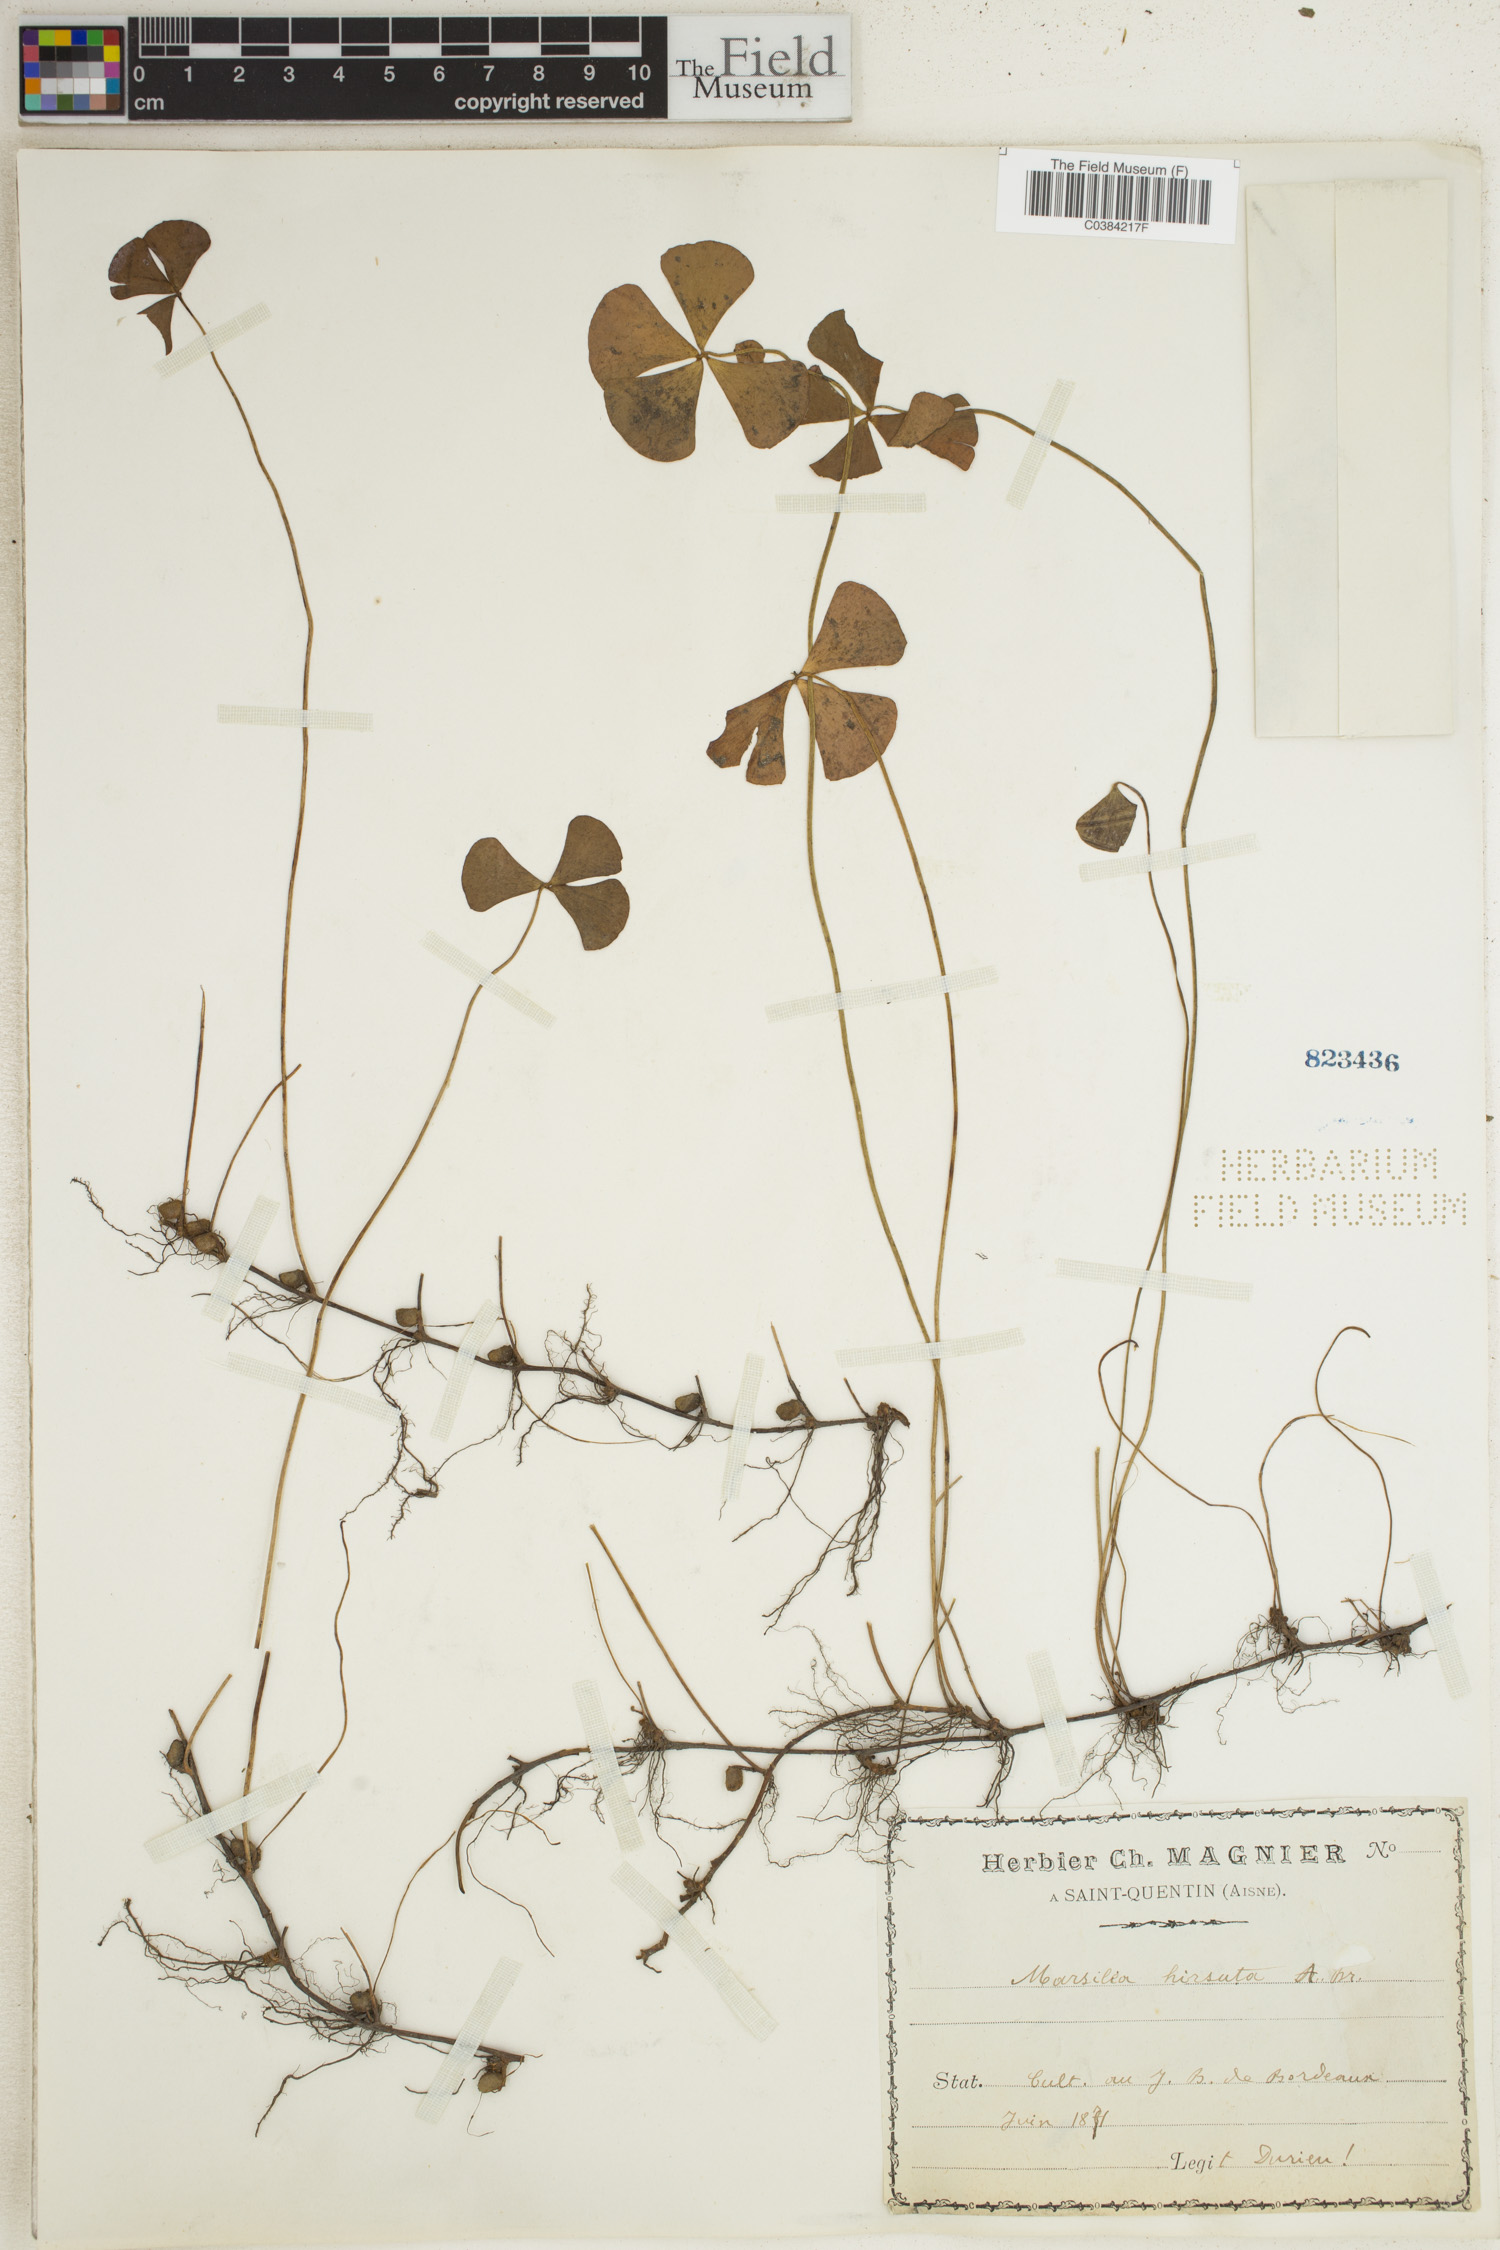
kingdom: Plantae
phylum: Tracheophyta
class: Polypodiopsida
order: Salviniales
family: Marsileaceae
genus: Marsilea
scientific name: Marsilea hirsuta
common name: Rough waterclover
